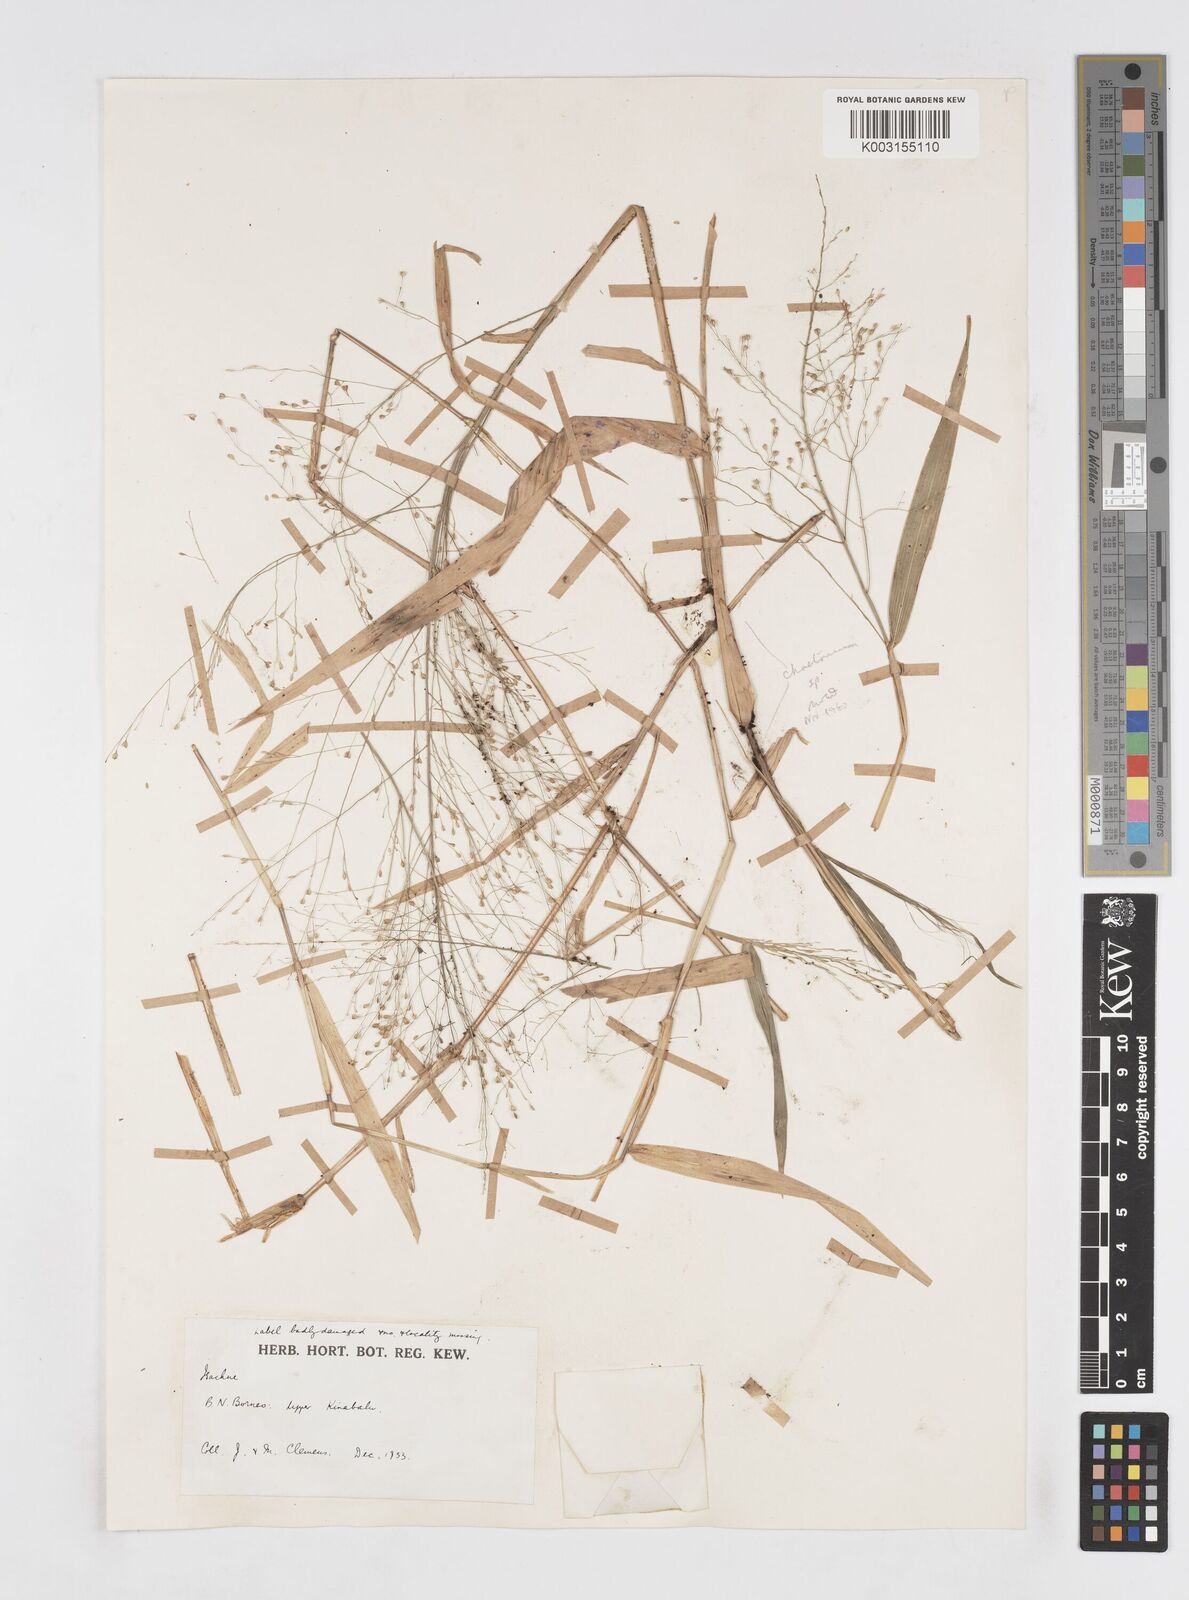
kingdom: Plantae
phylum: Tracheophyta
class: Liliopsida
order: Poales
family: Poaceae
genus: Isachne
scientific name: Isachne
